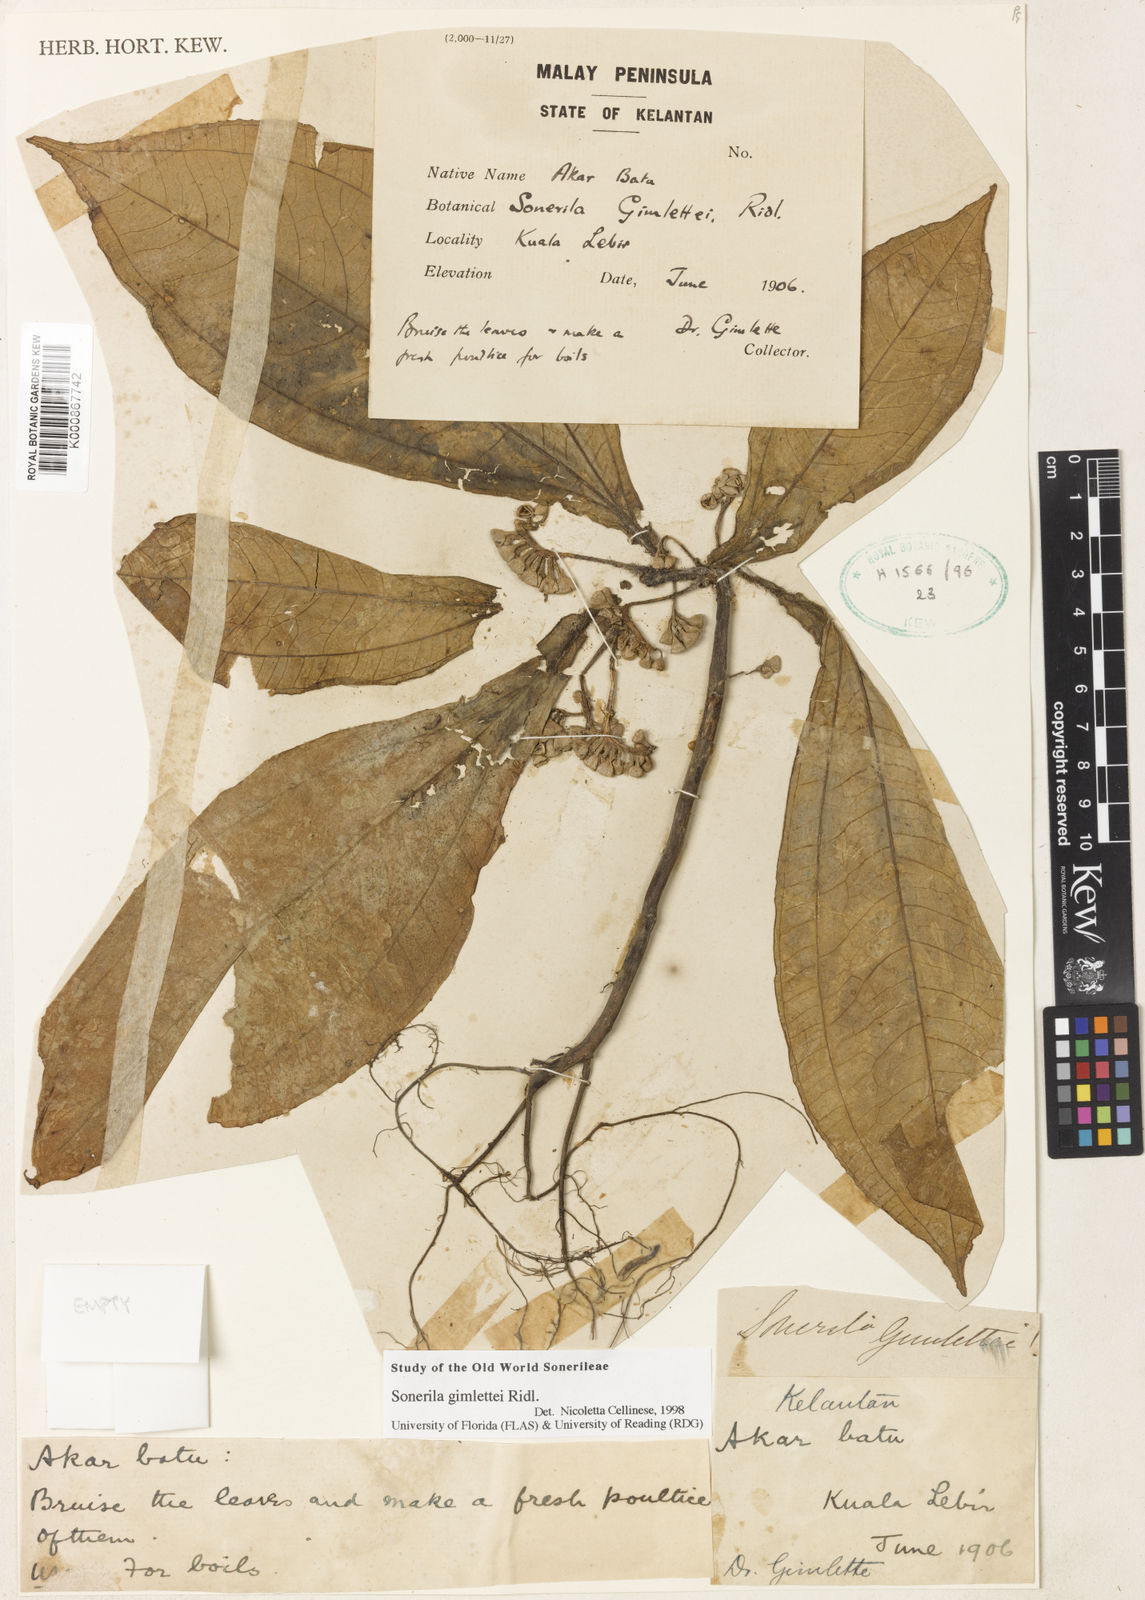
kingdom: Plantae
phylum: Tracheophyta
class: Magnoliopsida
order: Myrtales
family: Melastomataceae
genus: Sonerila
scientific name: Sonerila gimlettei
